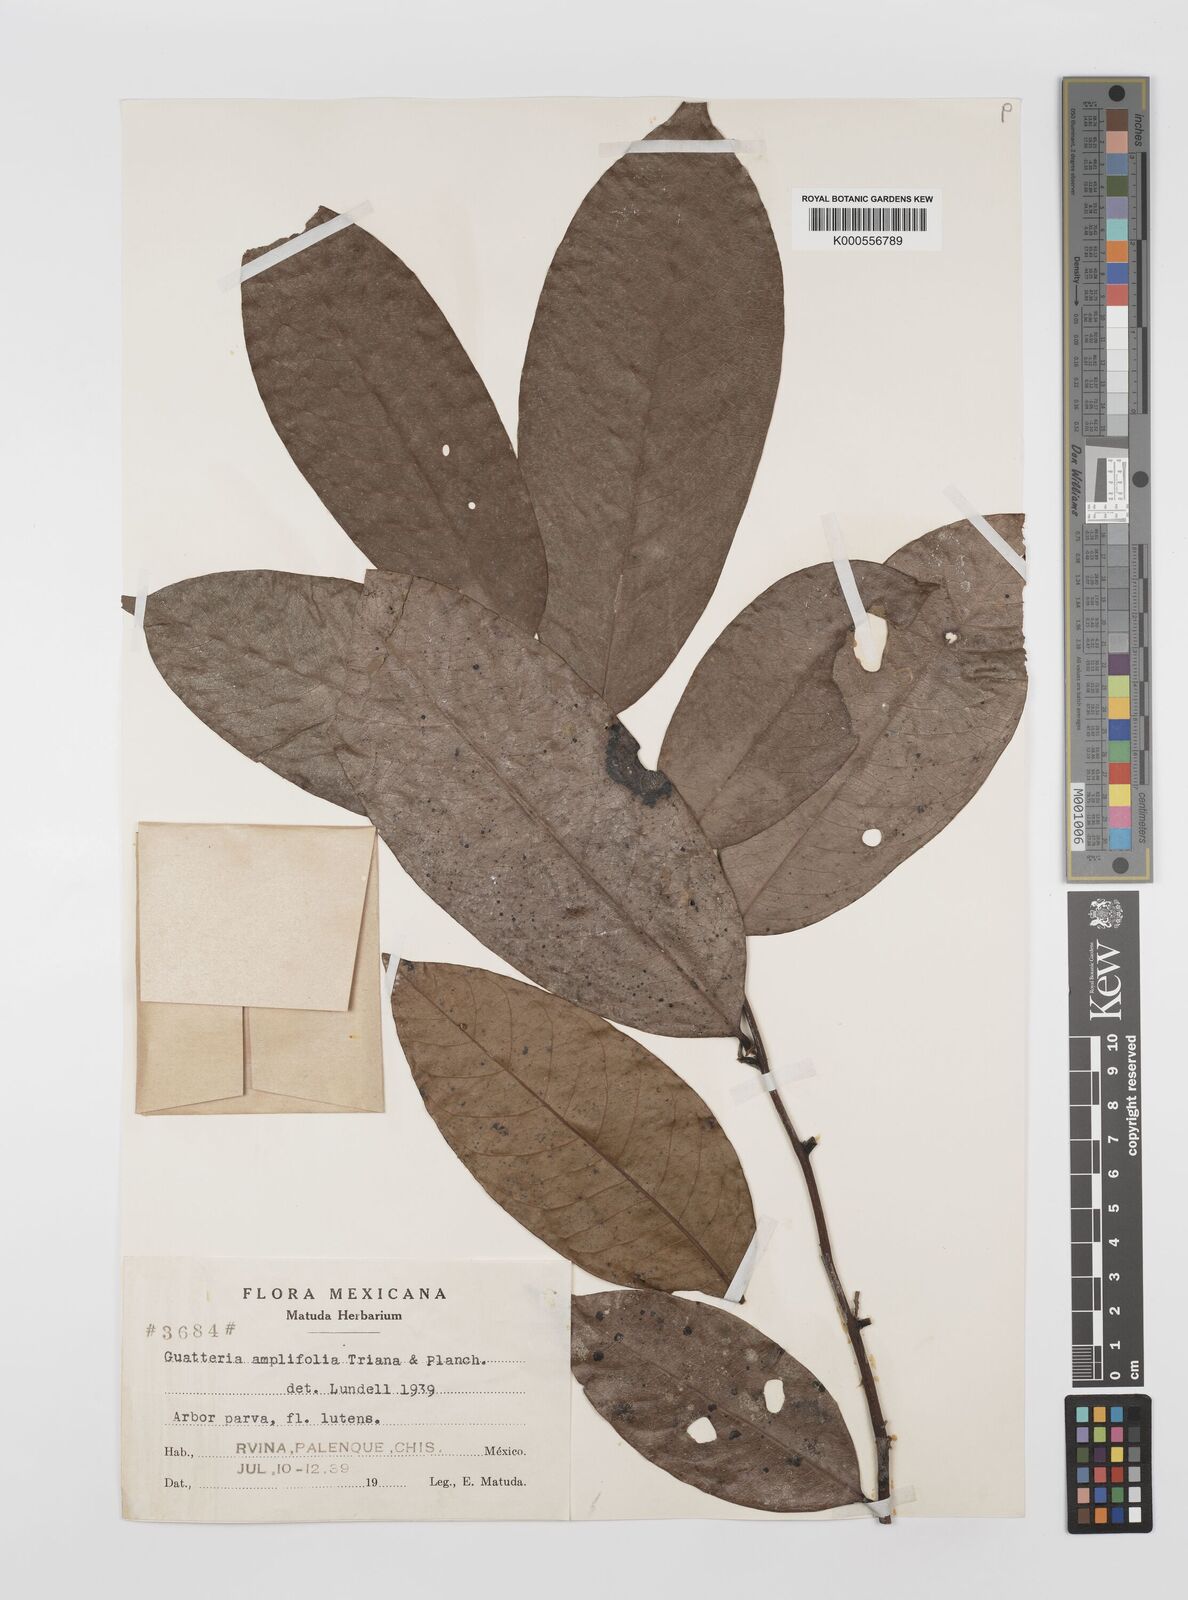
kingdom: Plantae
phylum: Tracheophyta
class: Magnoliopsida
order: Magnoliales
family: Annonaceae
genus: Guatteria
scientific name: Guatteria amplifolia
